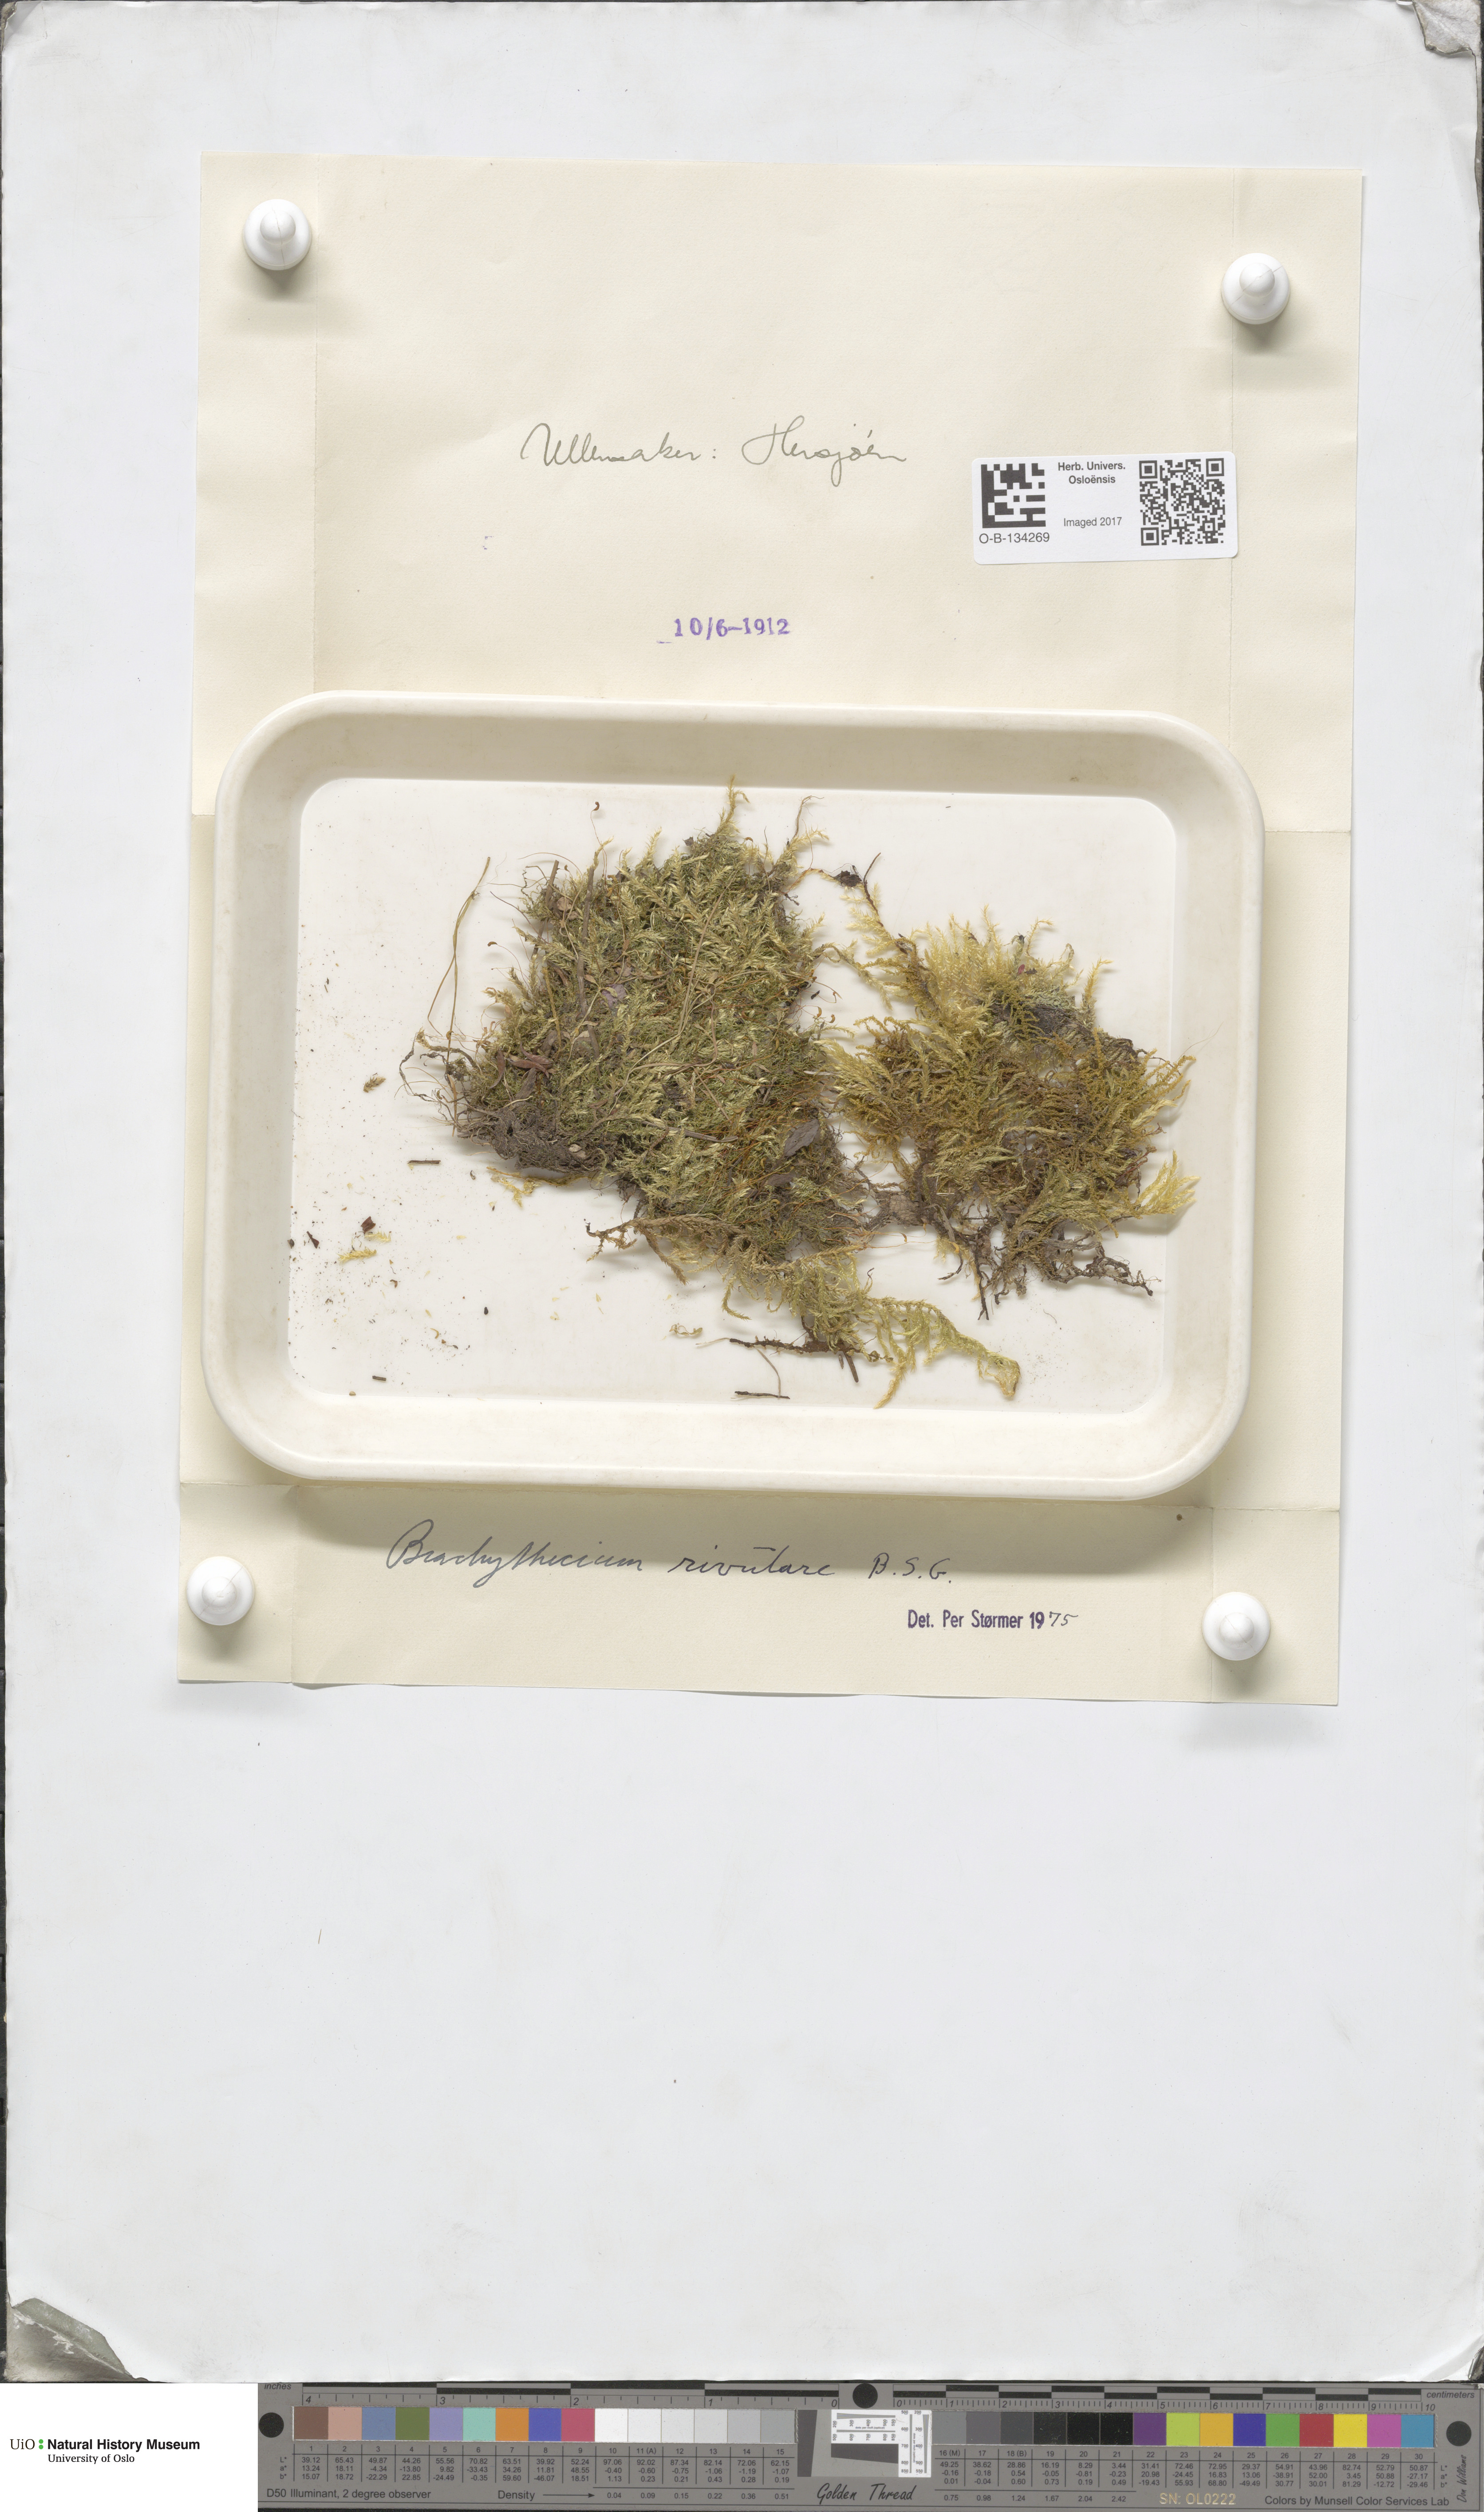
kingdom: Plantae
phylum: Bryophyta
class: Bryopsida
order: Hypnales
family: Brachytheciaceae
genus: Brachythecium
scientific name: Brachythecium rivulare
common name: River ragged moss
